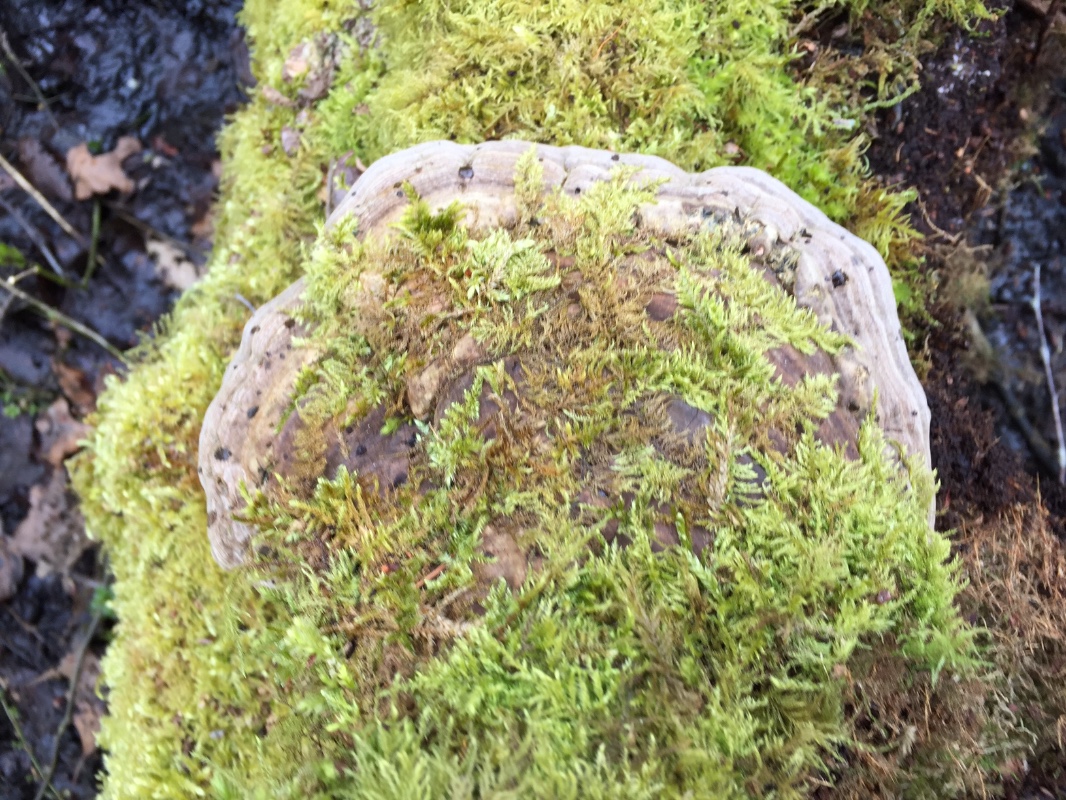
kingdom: Fungi
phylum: Basidiomycota
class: Agaricomycetes
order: Polyporales
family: Polyporaceae
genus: Ganoderma
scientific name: Ganoderma applanatum
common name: flad lakporesvamp
